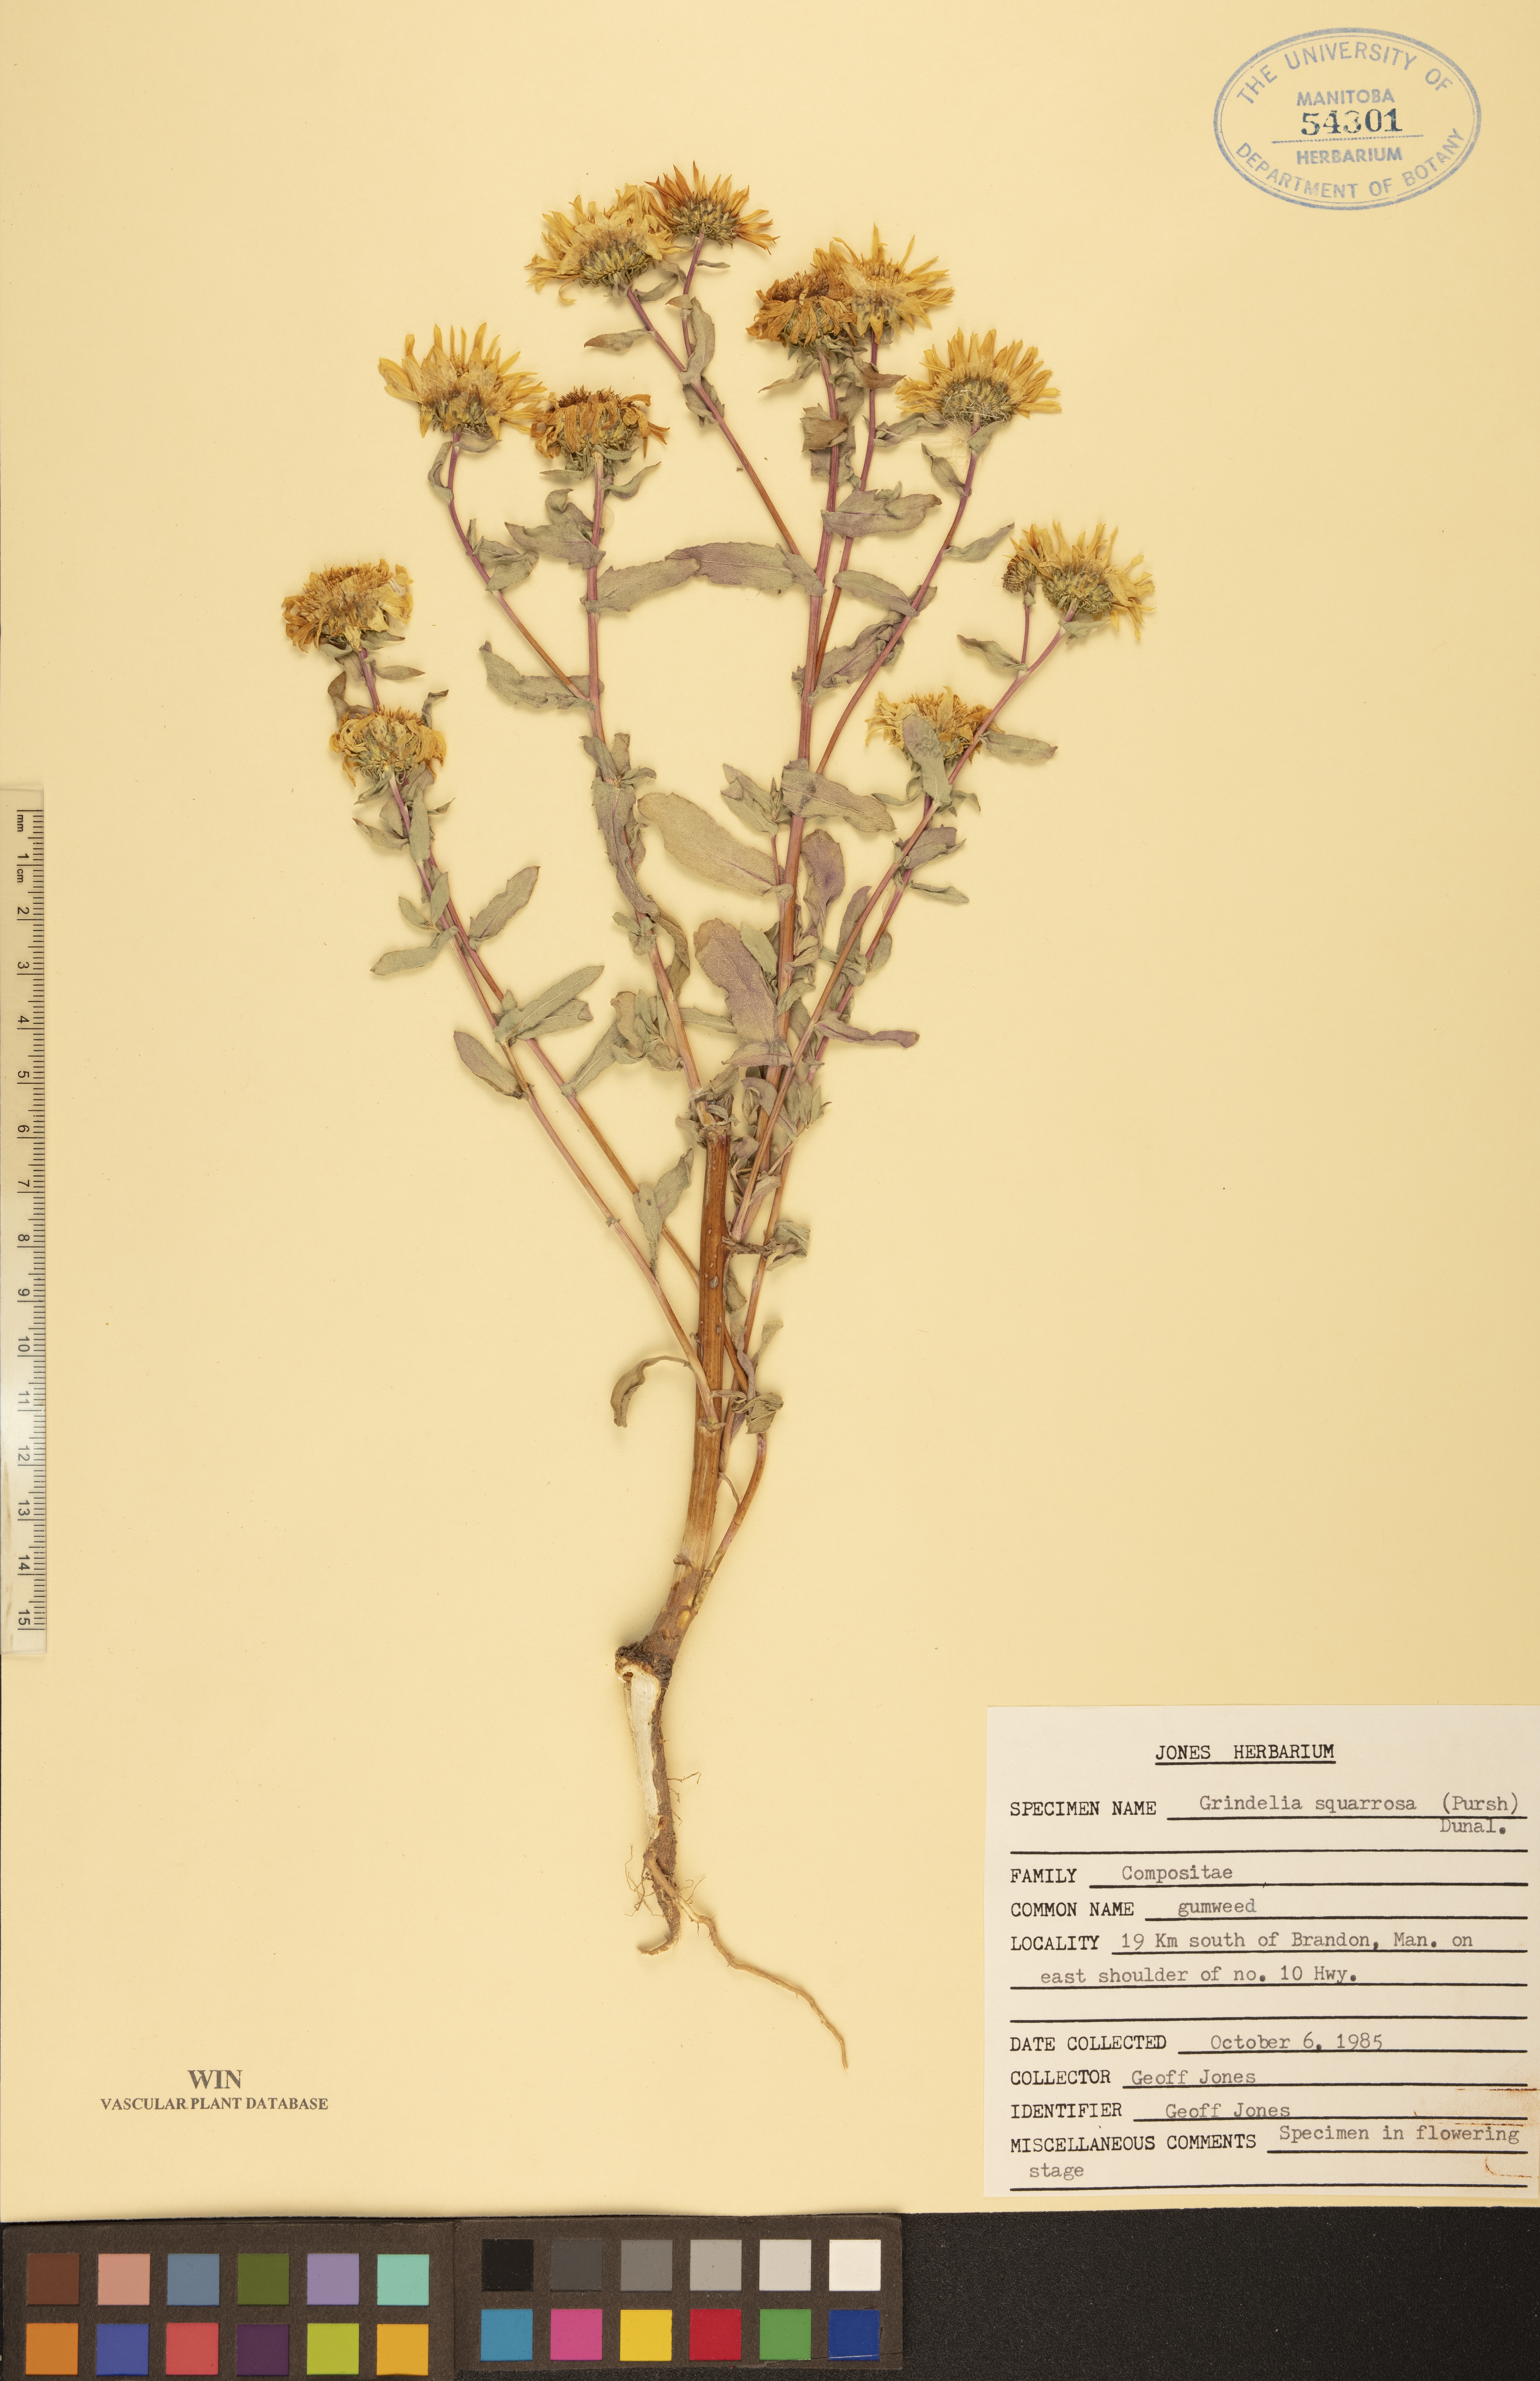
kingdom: Plantae
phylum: Tracheophyta
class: Magnoliopsida
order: Asterales
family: Asteraceae
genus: Grindelia
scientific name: Grindelia squarrosa
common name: Curly-cup gumweed
